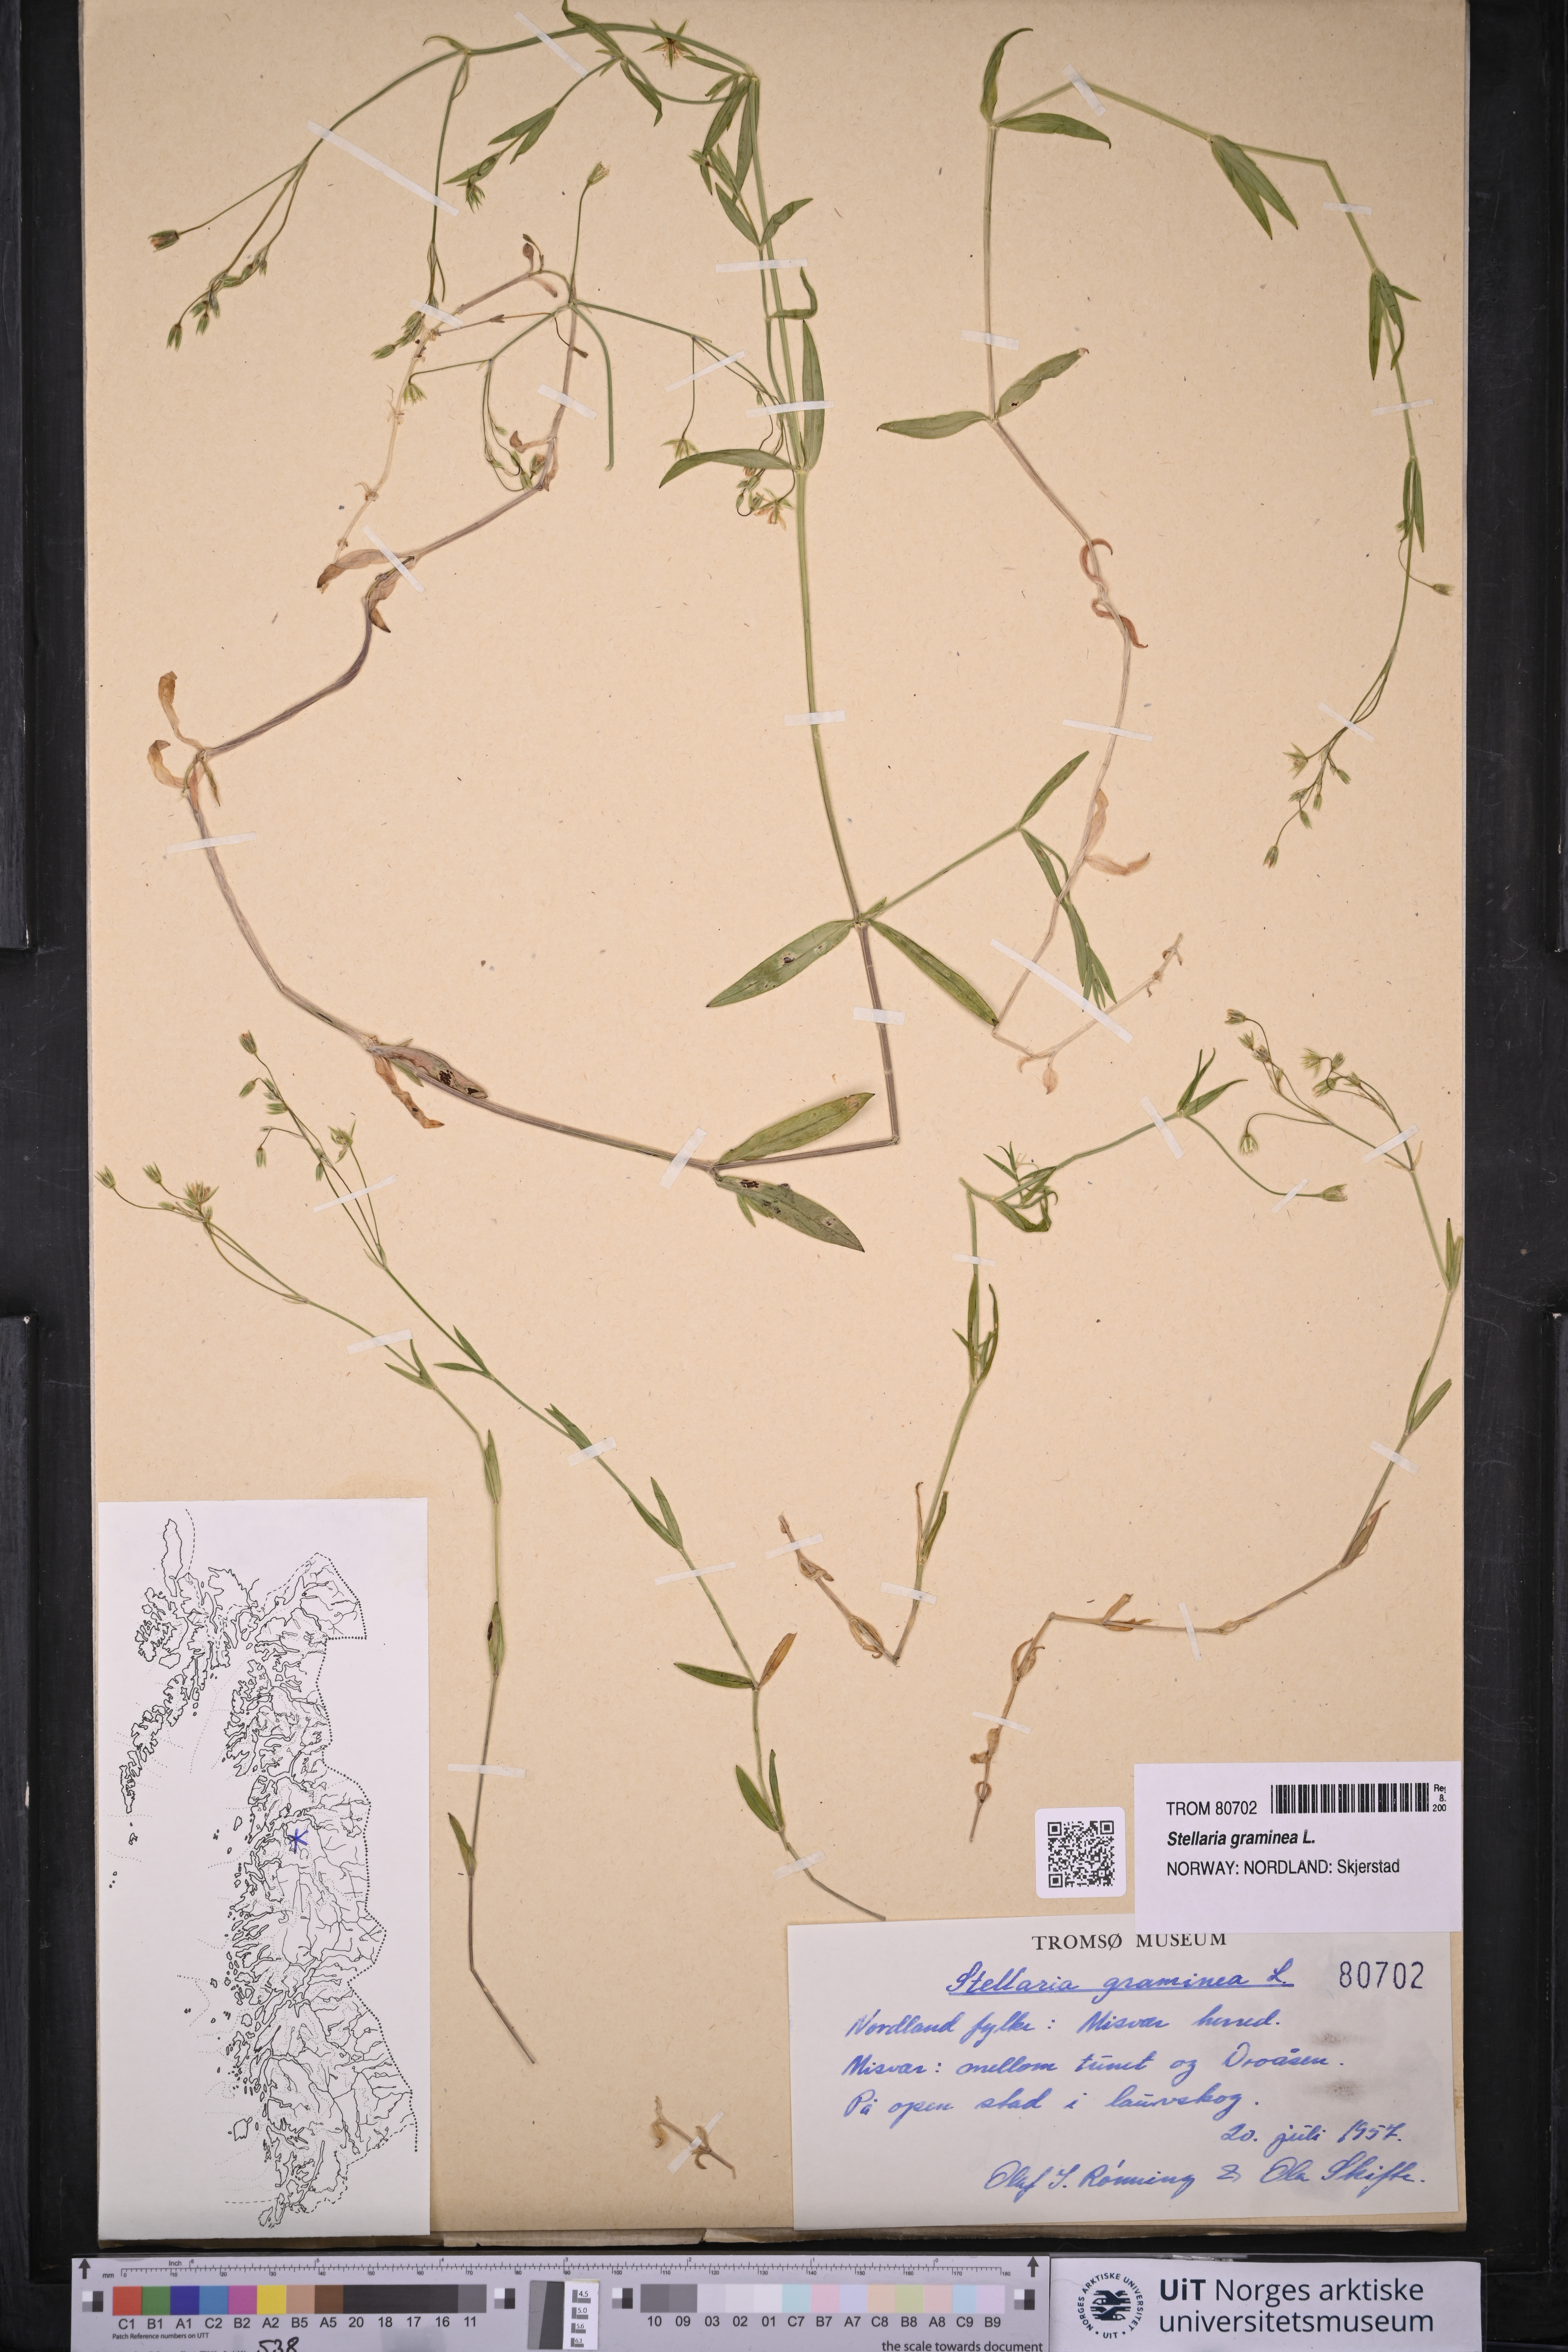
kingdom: Plantae
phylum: Tracheophyta
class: Magnoliopsida
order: Caryophyllales
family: Caryophyllaceae
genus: Stellaria
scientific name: Stellaria graminea
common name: Grass-like starwort
